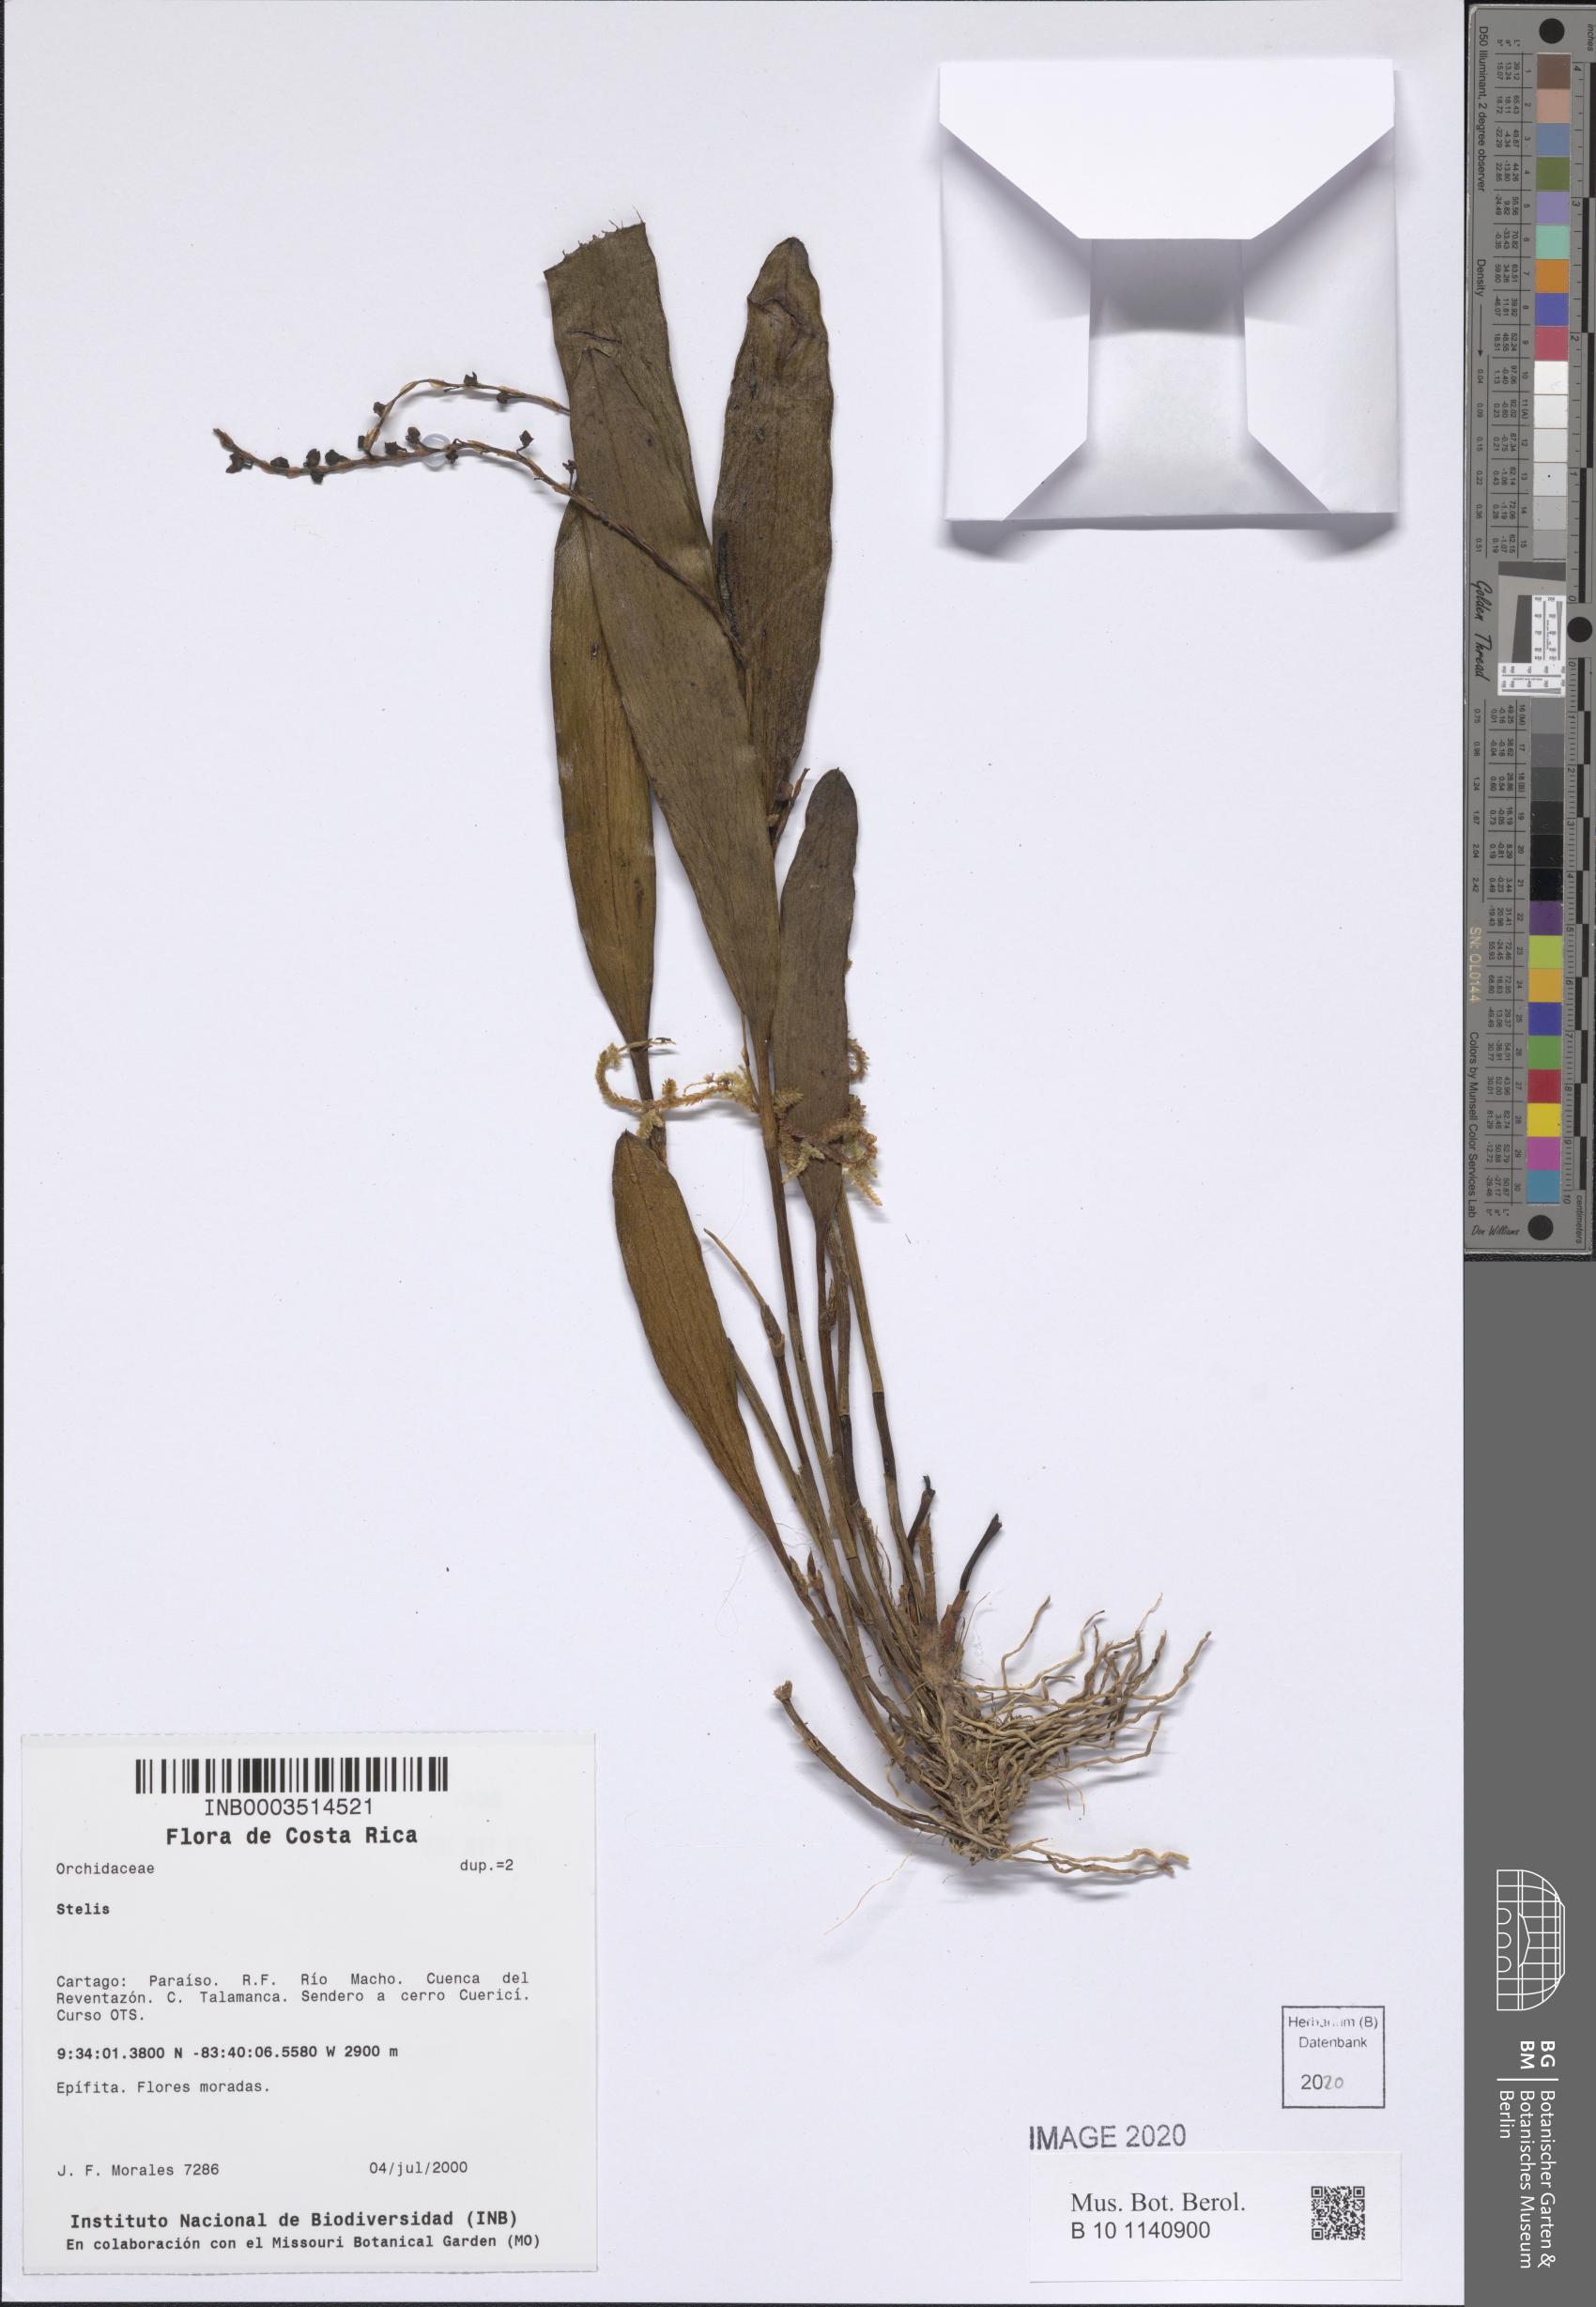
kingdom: Plantae
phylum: Tracheophyta
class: Liliopsida
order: Asparagales
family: Orchidaceae
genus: Stelis
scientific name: Stelis
